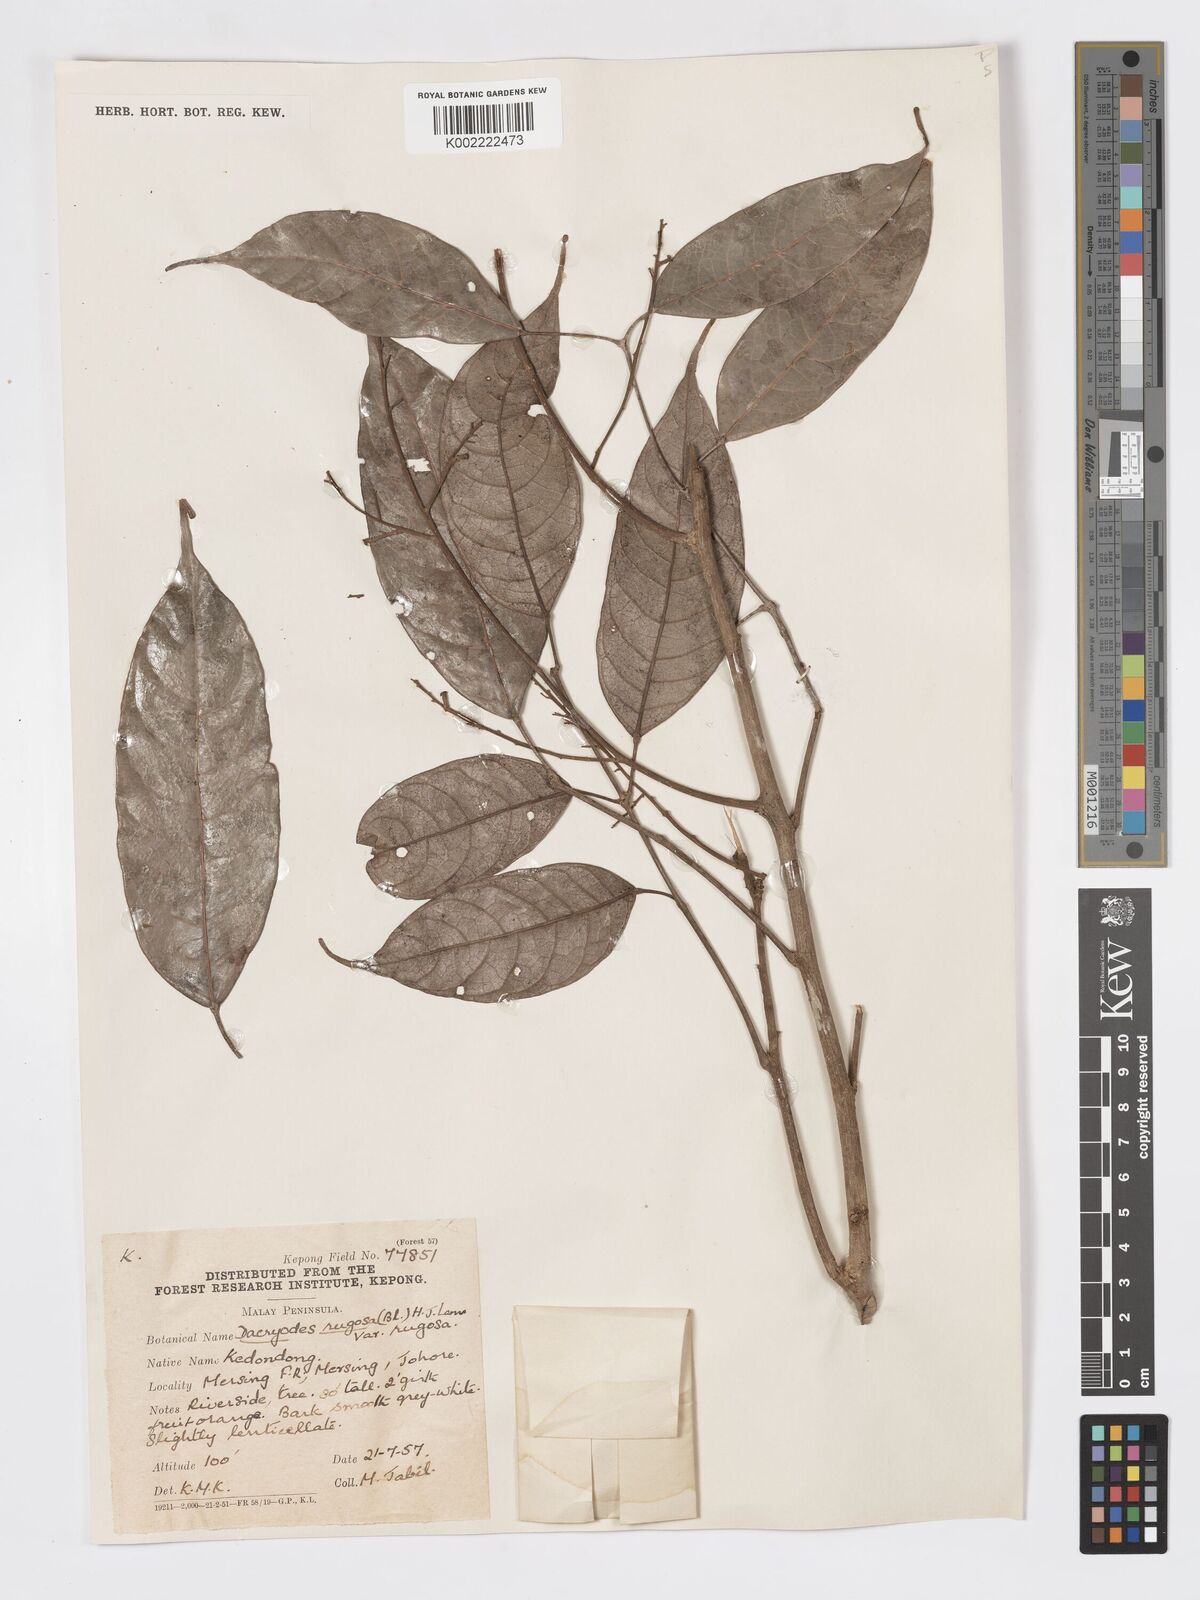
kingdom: Plantae
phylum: Tracheophyta
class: Magnoliopsida
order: Sapindales
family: Burseraceae
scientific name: Burseraceae
